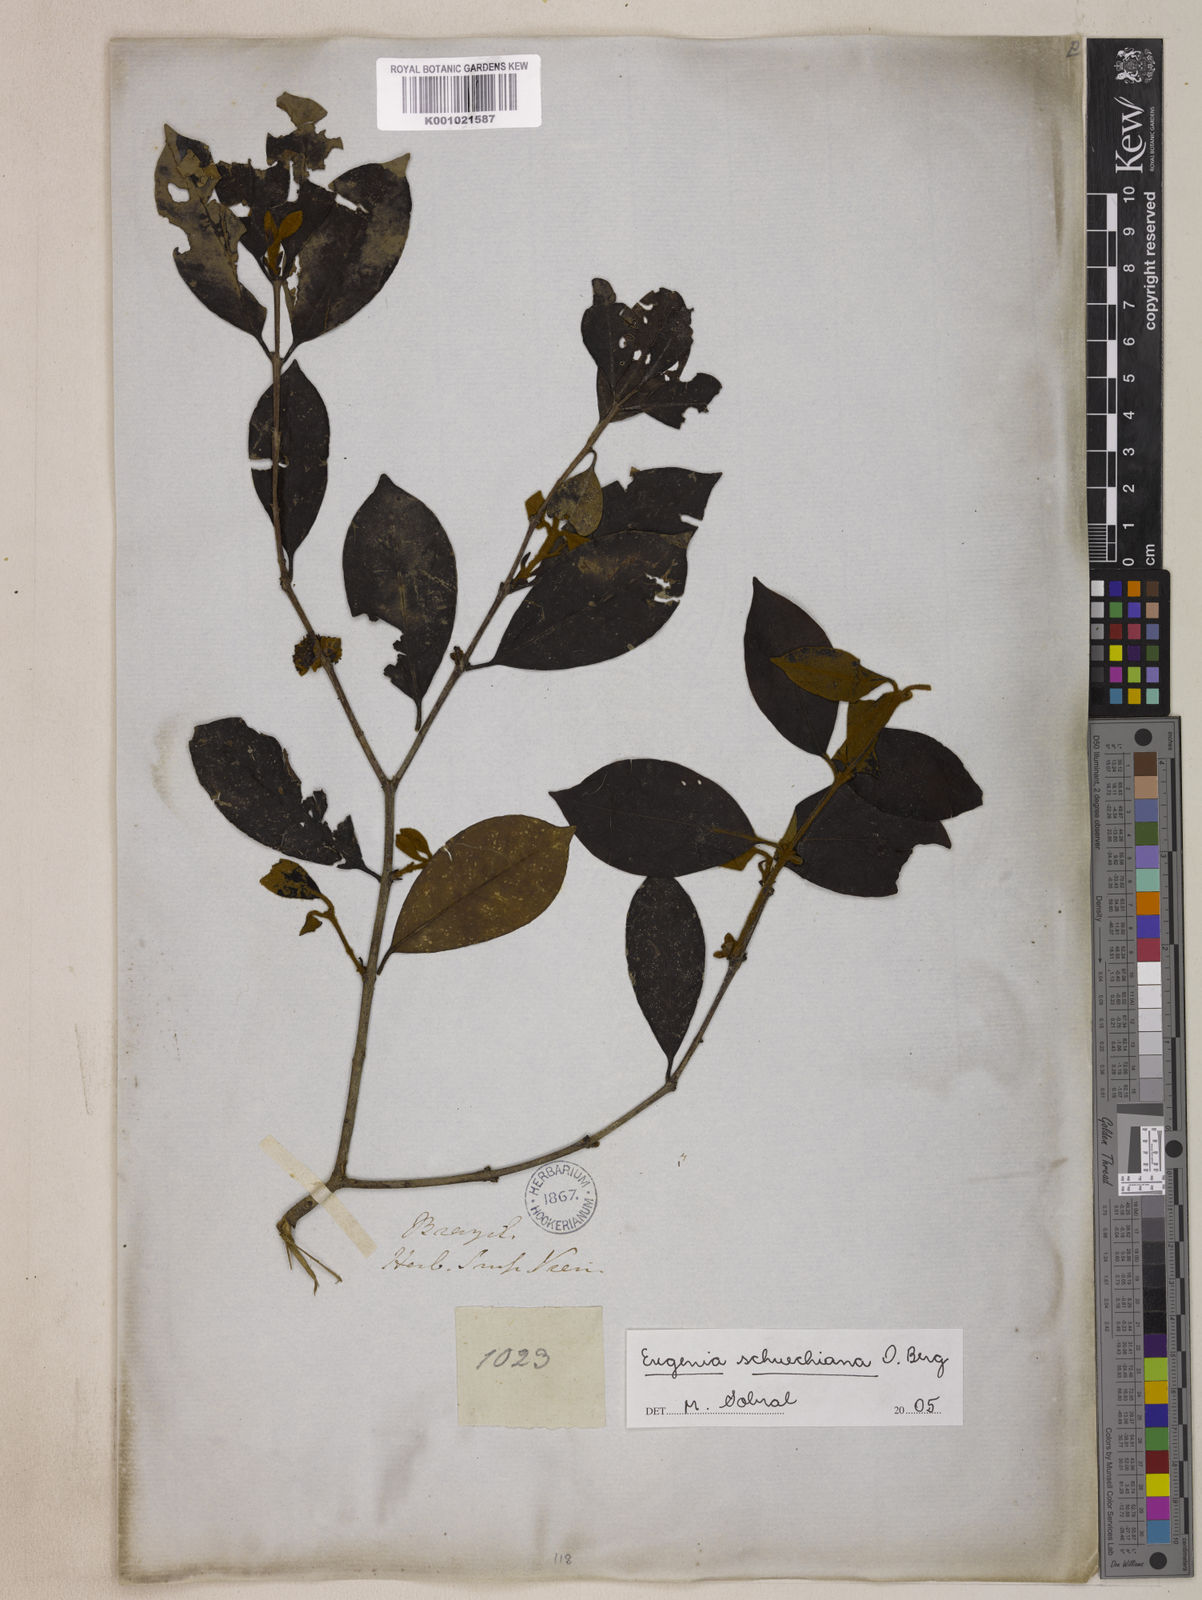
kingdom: Plantae
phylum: Tracheophyta
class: Magnoliopsida
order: Myrtales
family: Myrtaceae
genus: Eugenia
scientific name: Eugenia verticillata
